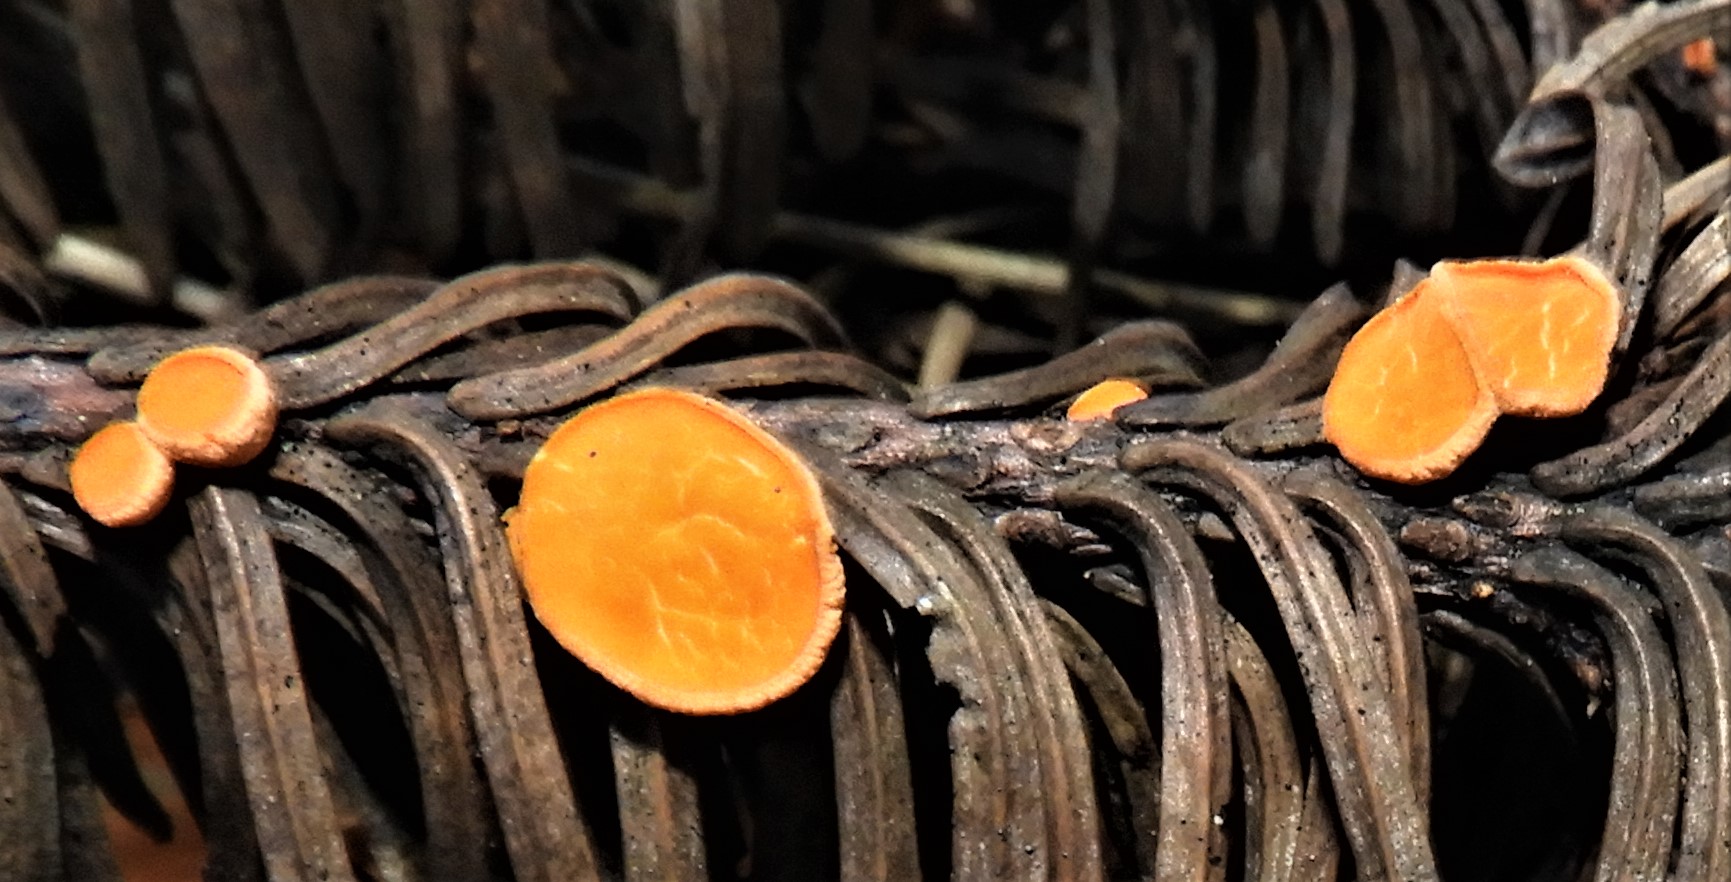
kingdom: Fungi
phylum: Ascomycota
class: Pezizomycetes
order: Pezizales
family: Sarcoscyphaceae
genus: Pithya
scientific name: Pithya vulgaris
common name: stor dukatbæger
